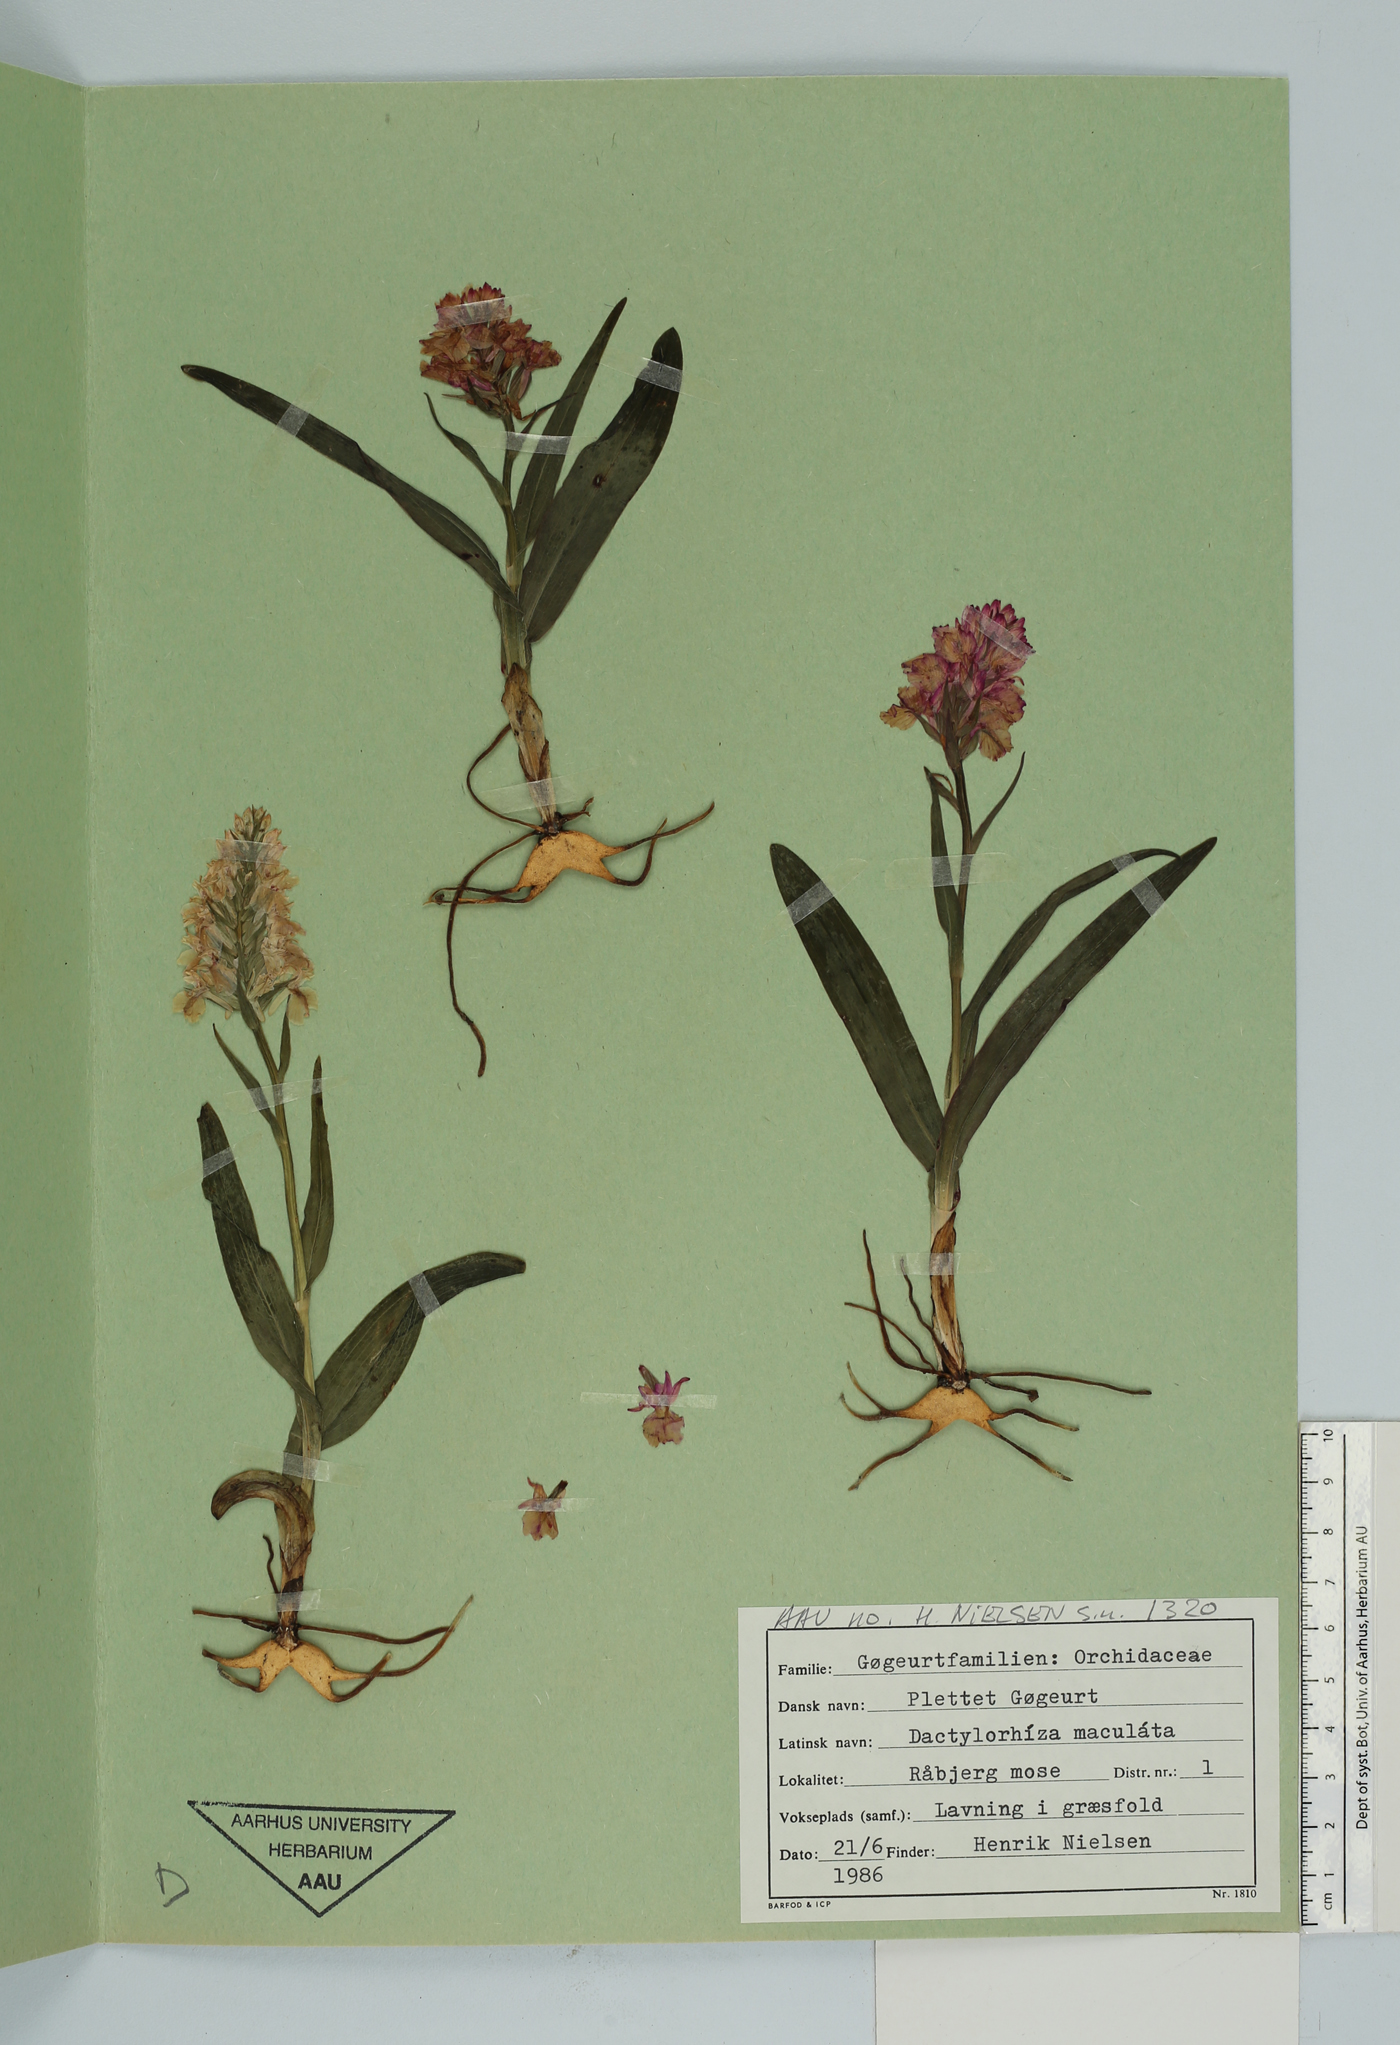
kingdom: Plantae
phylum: Tracheophyta
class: Liliopsida
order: Asparagales
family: Orchidaceae
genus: Dactylorhiza
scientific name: Dactylorhiza maculata
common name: Heath spotted-orchid
